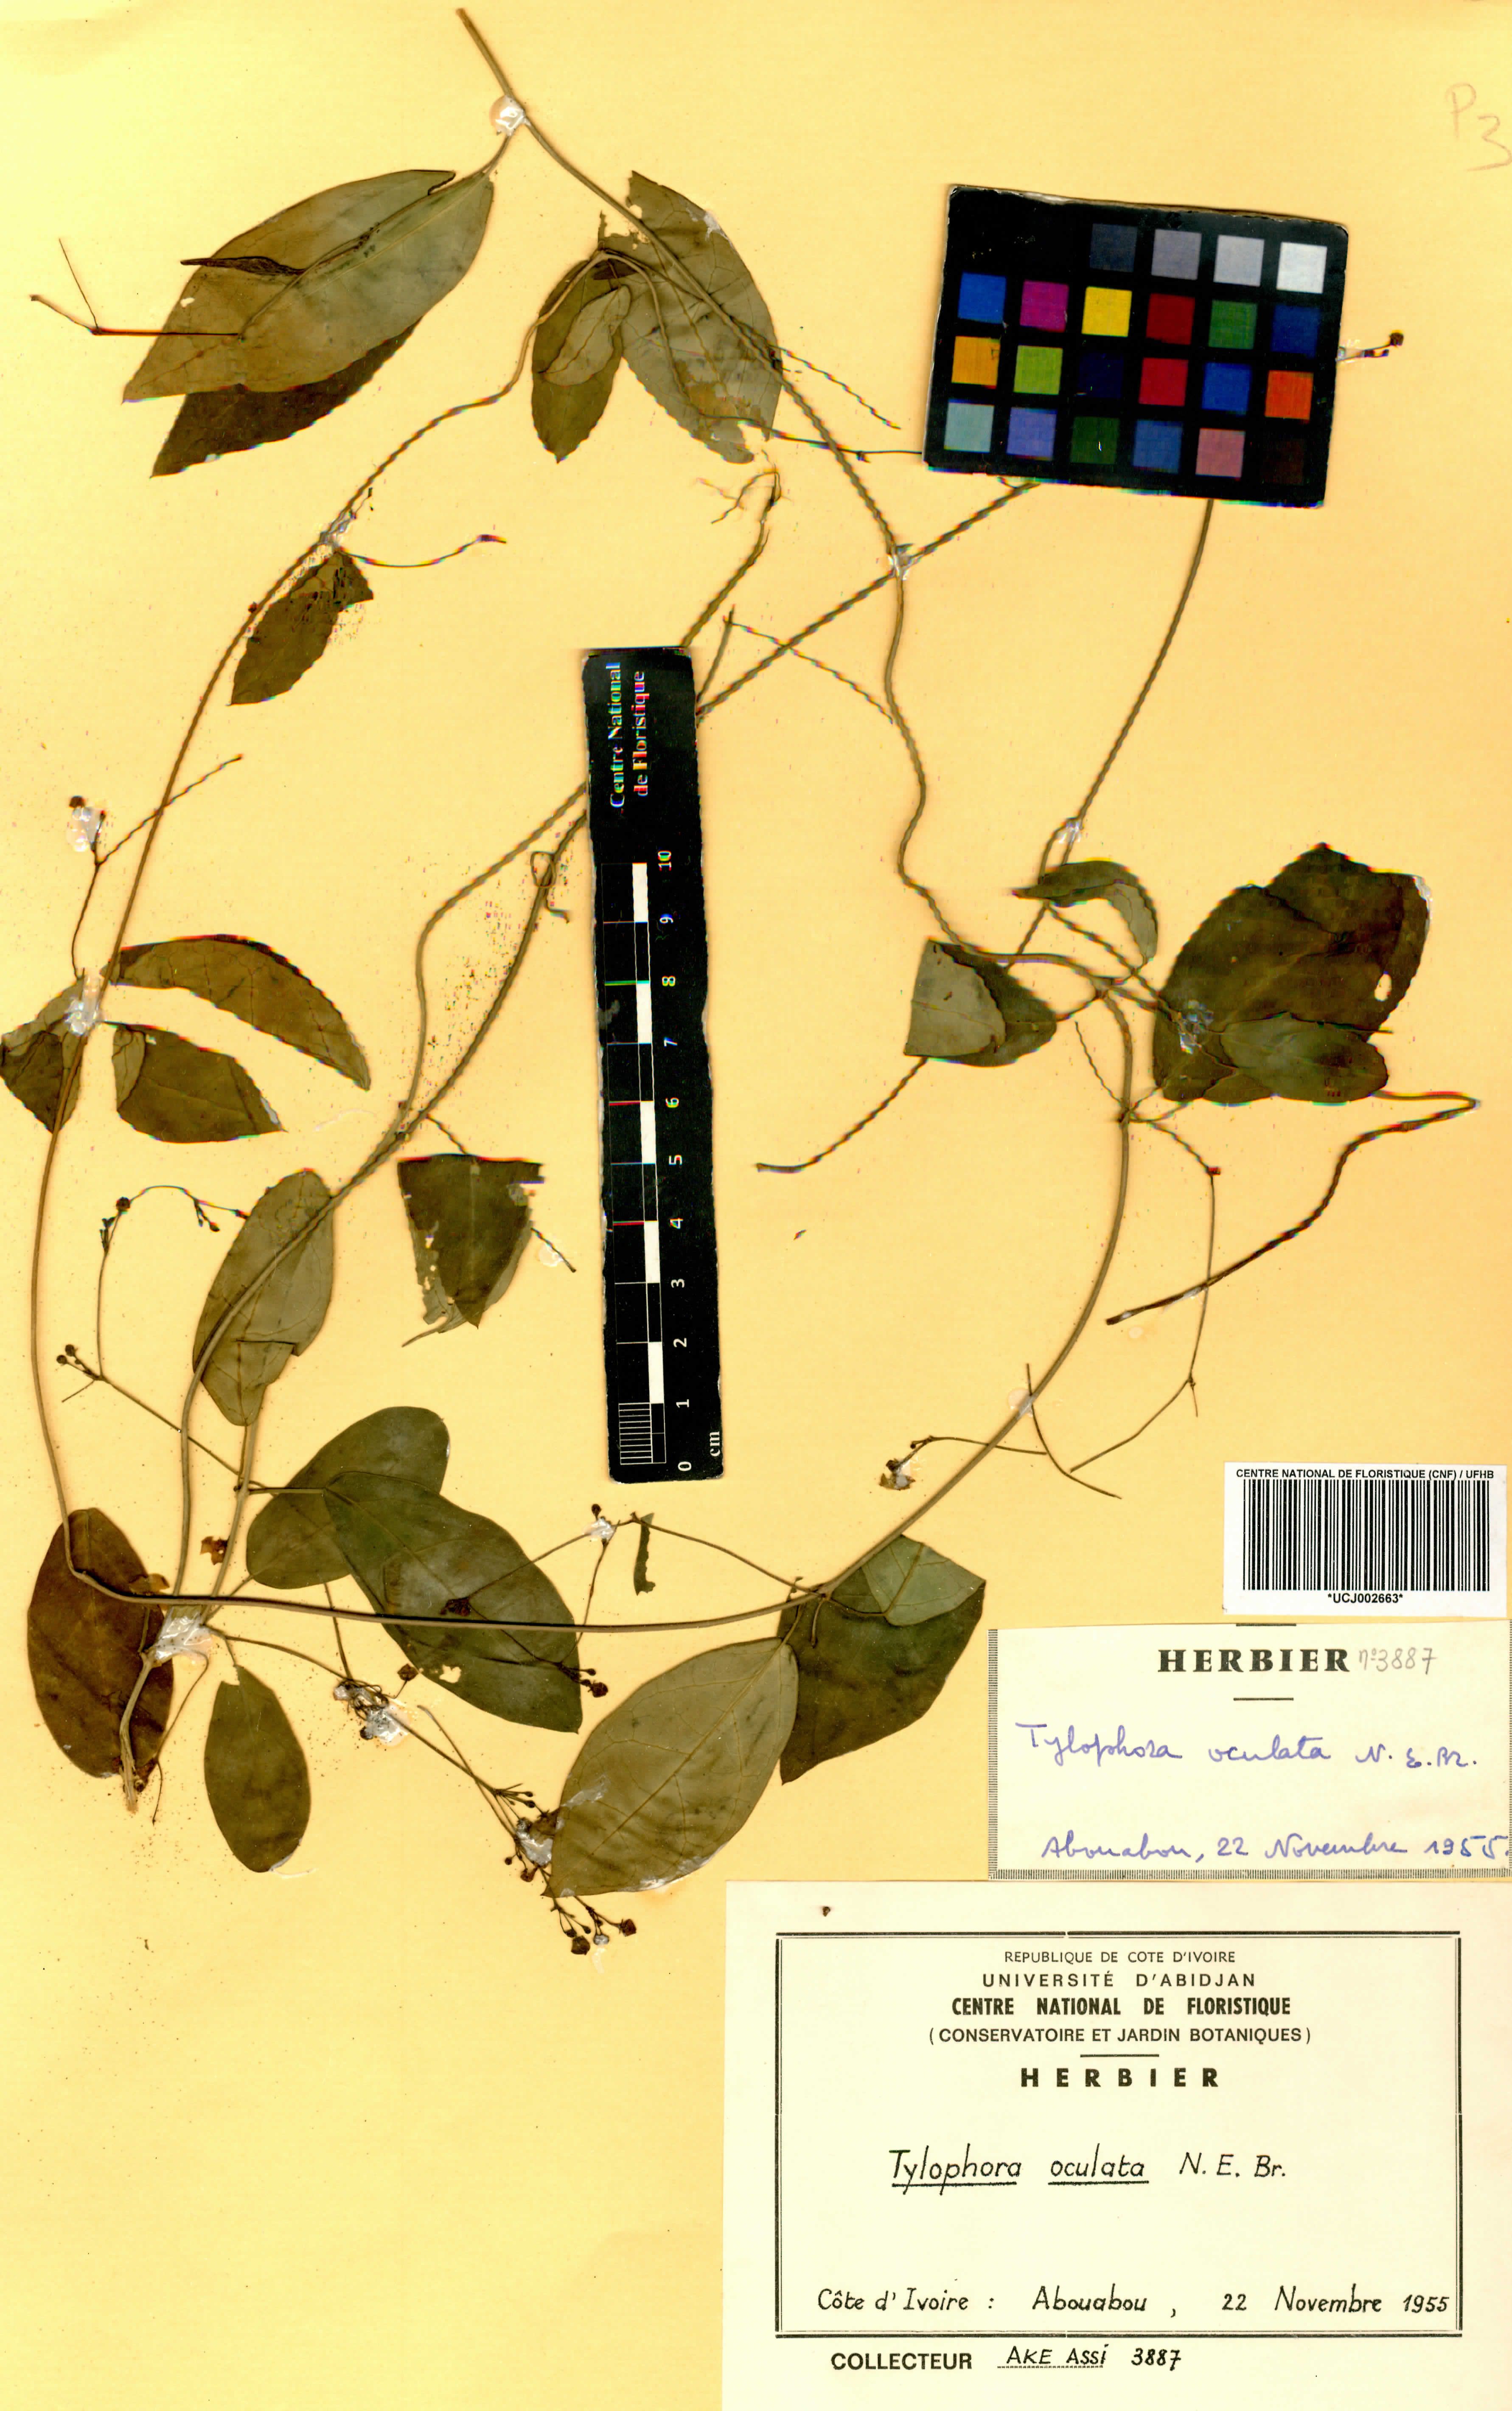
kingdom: Plantae
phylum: Tracheophyta
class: Magnoliopsida
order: Gentianales
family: Apocynaceae
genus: Vincetoxicum
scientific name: Vincetoxicum oculatum
